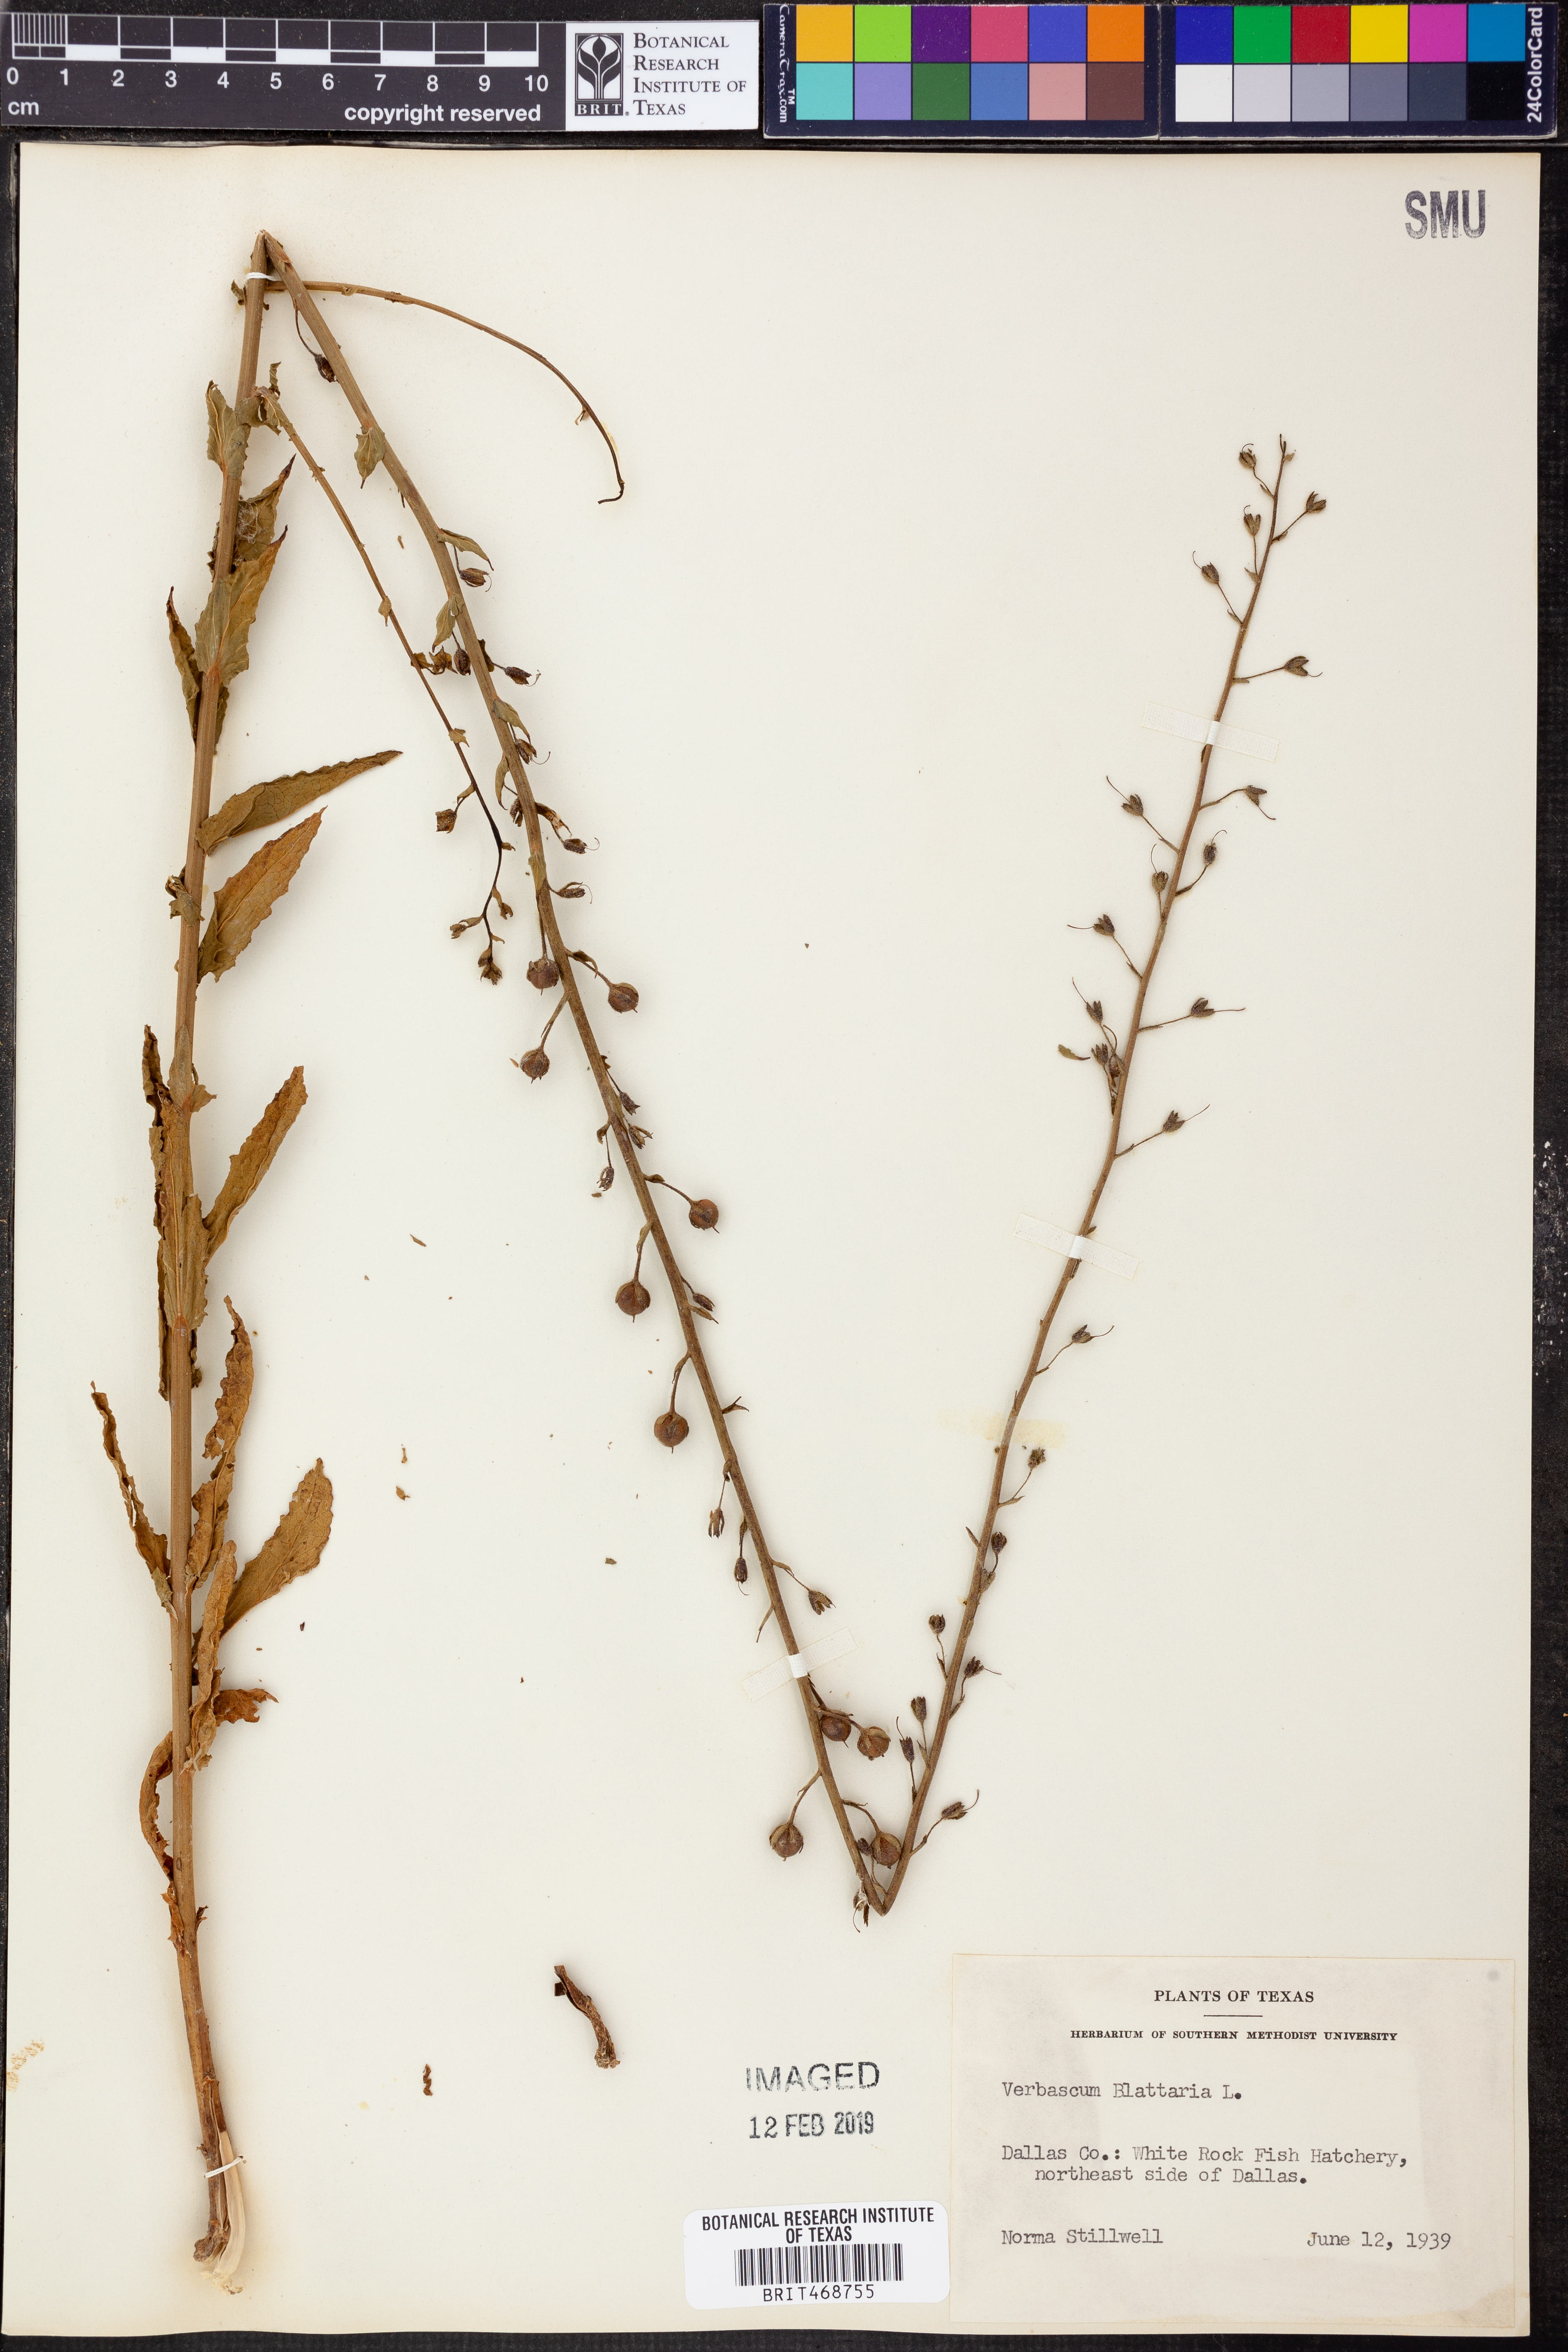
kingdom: Plantae
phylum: Tracheophyta
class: Magnoliopsida
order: Lamiales
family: Scrophulariaceae
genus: Verbascum
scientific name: Verbascum blattaria
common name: Moth mullein
